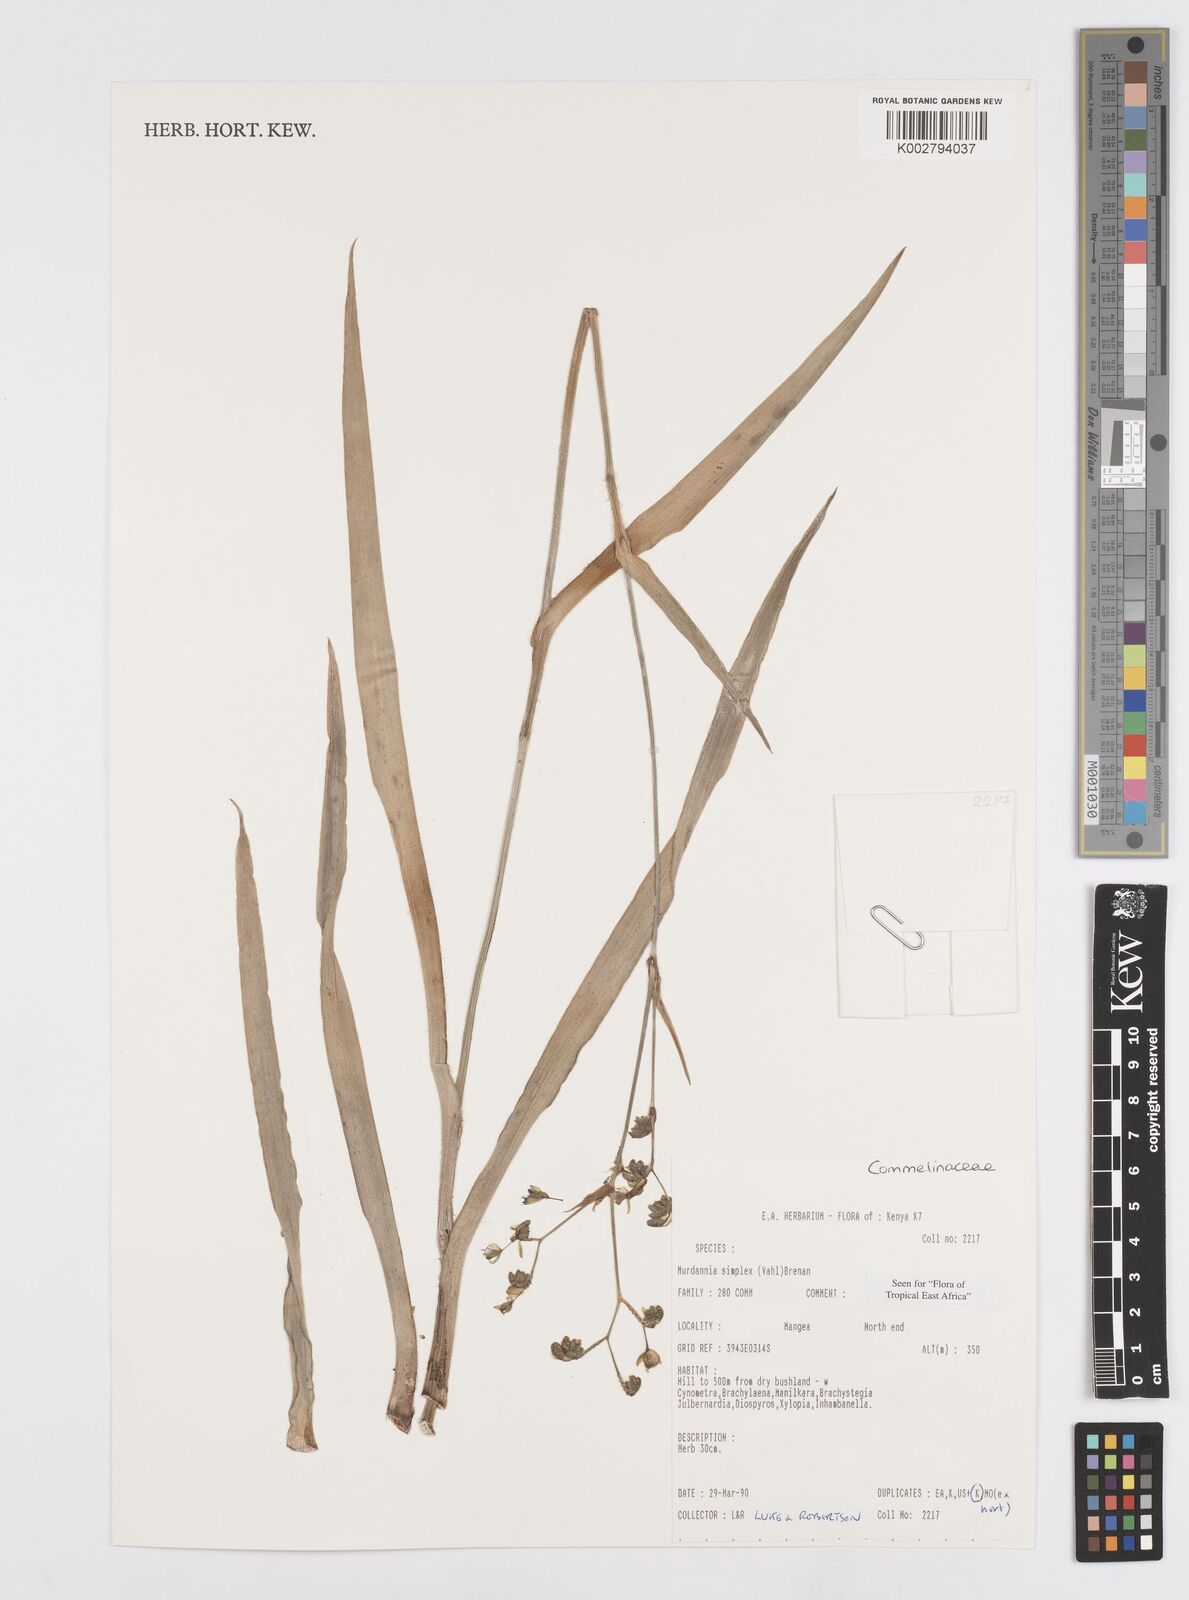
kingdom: Plantae
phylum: Tracheophyta
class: Liliopsida
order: Commelinales
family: Commelinaceae
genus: Murdannia
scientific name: Murdannia simplex
